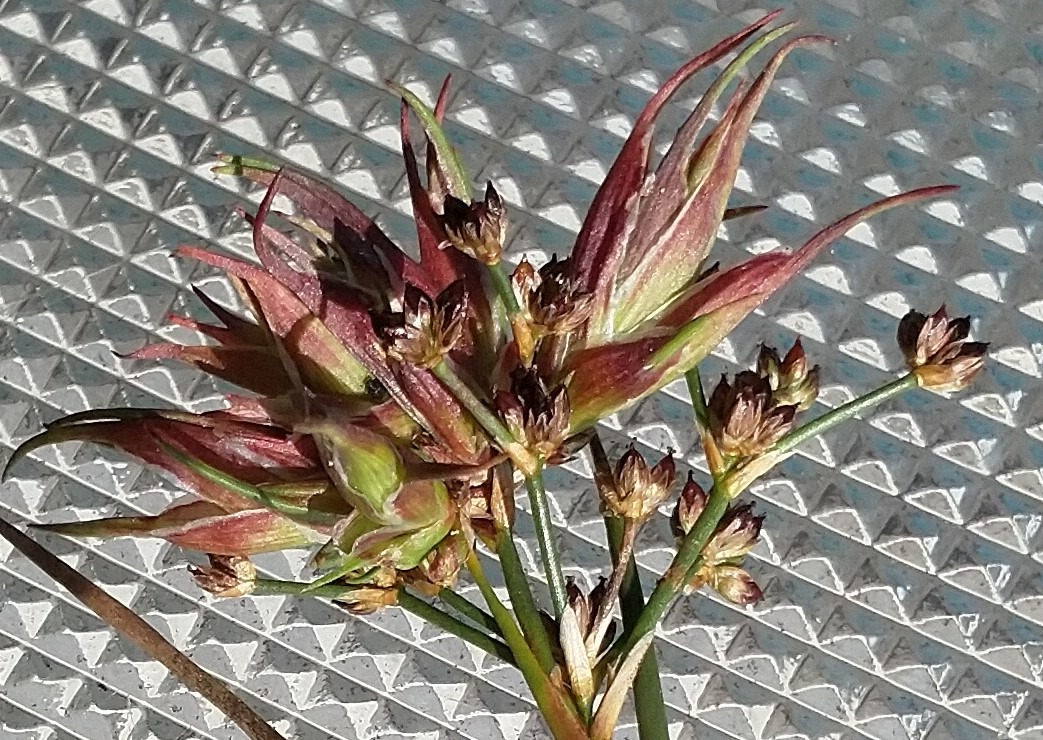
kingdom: Plantae
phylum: Tracheophyta
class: Liliopsida
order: Poales
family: Juncaceae
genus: Juncus
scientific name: Juncus articulatus
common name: Glanskapslet siv
